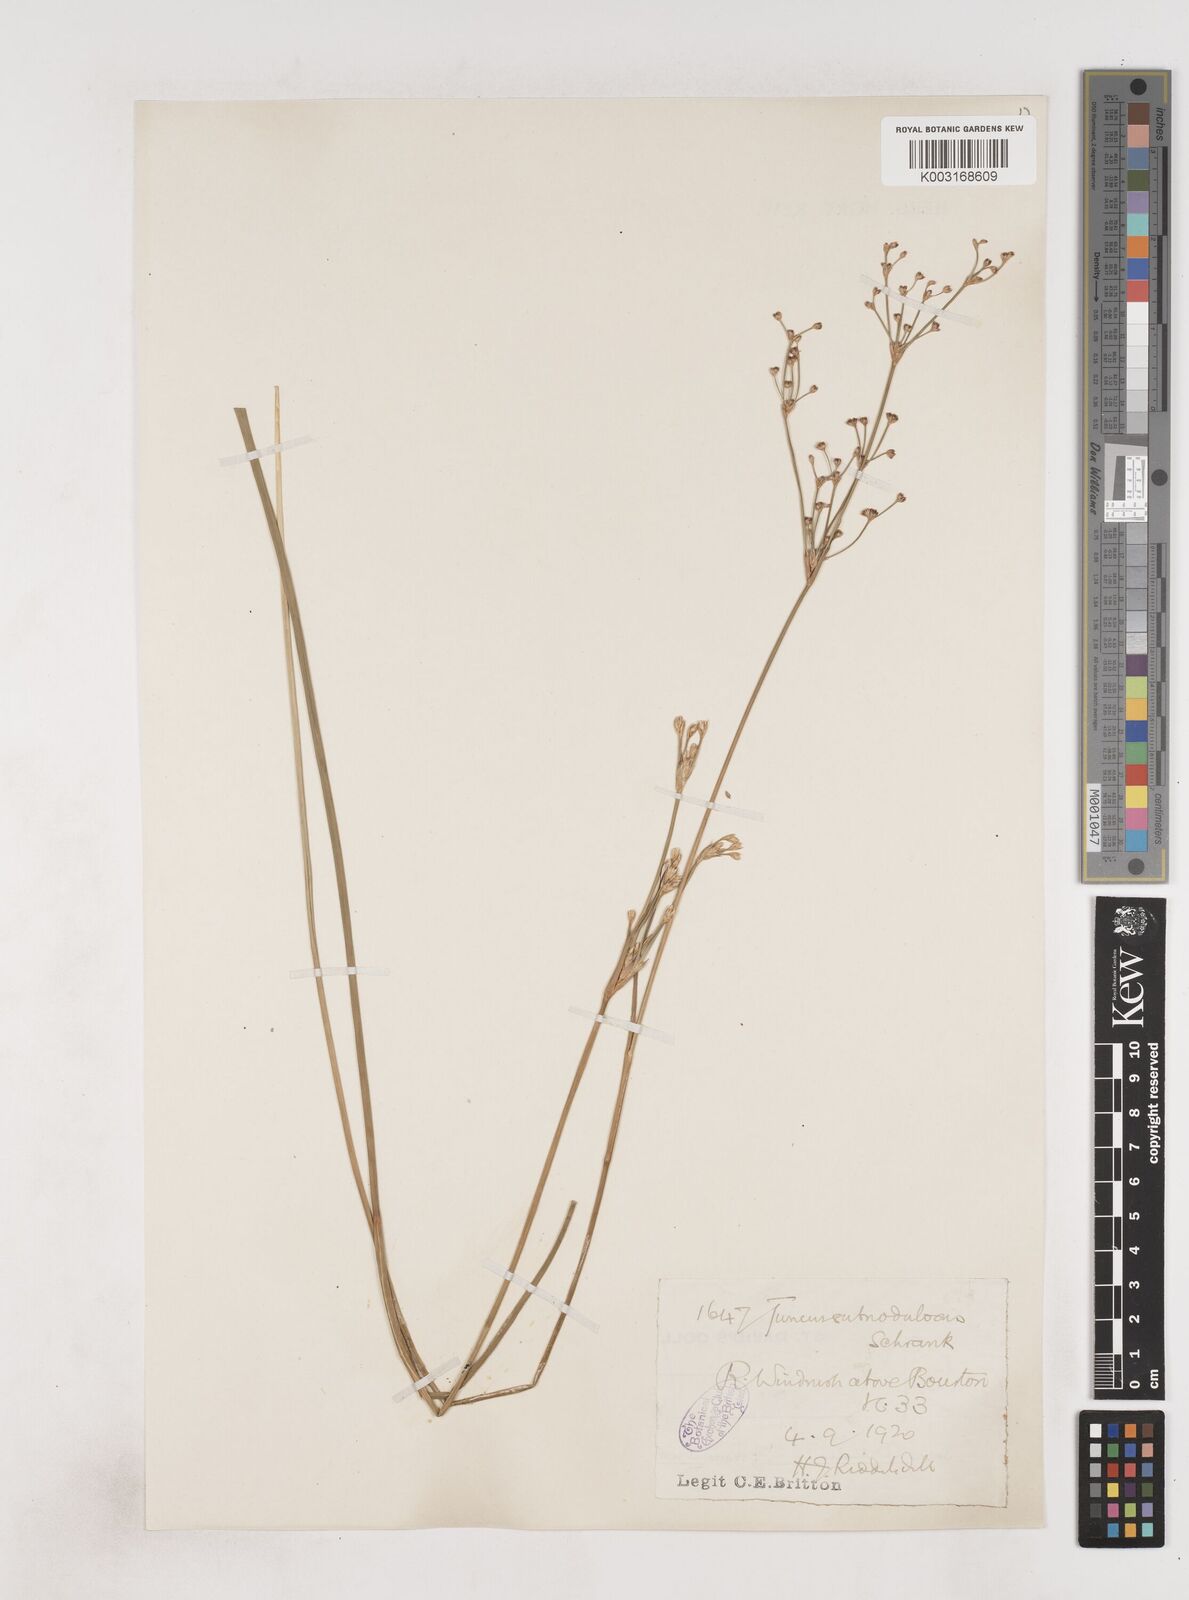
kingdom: Plantae
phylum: Tracheophyta
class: Liliopsida
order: Poales
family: Juncaceae
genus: Juncus
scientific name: Juncus subnodulosus
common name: Blunt-flowered rush
